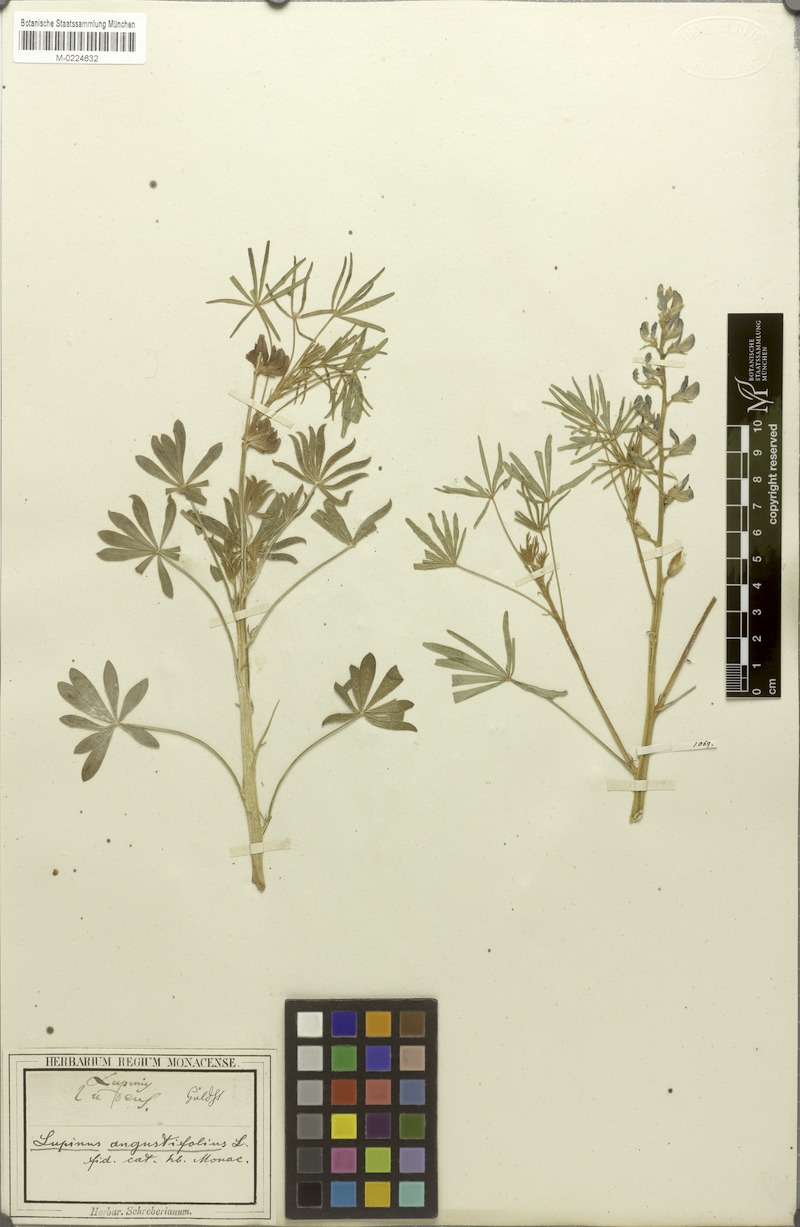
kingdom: Plantae
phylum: Tracheophyta
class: Magnoliopsida
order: Fabales
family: Fabaceae
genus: Lupinus
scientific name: Lupinus angustifolius
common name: Narrow-leaved lupin
